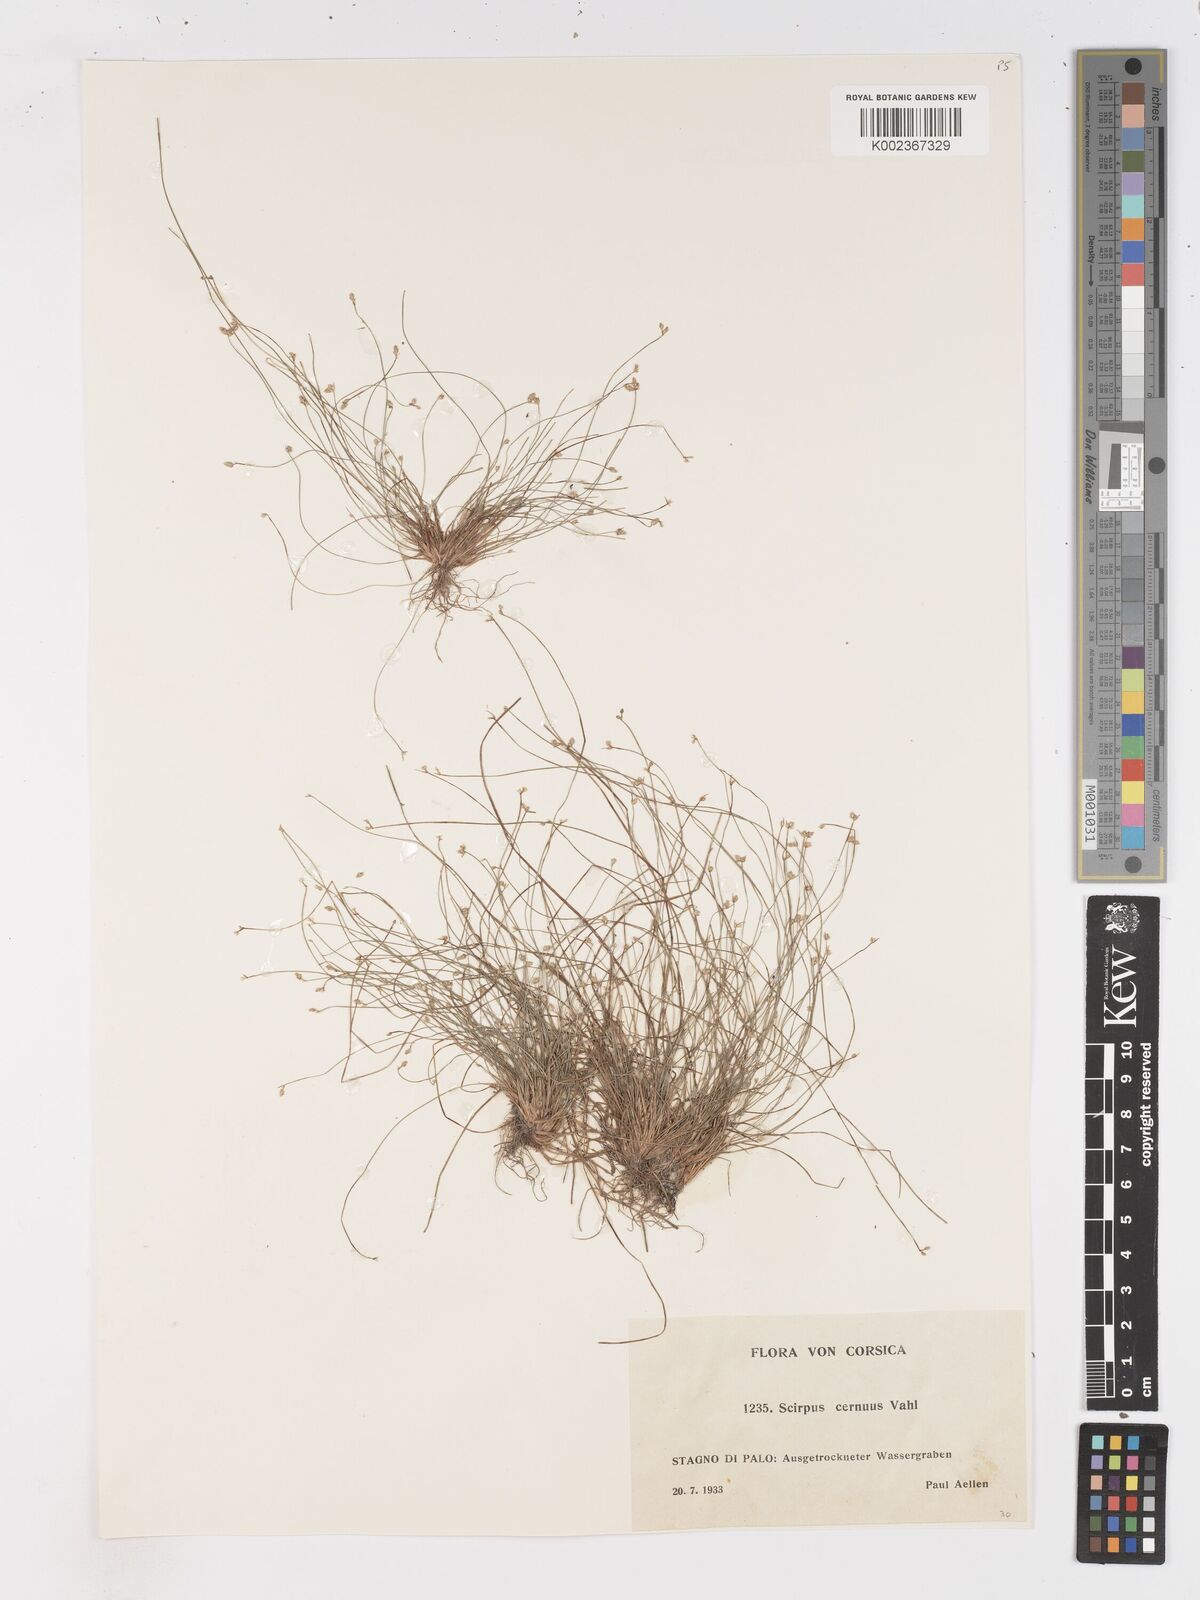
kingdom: Plantae
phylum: Tracheophyta
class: Liliopsida
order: Poales
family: Cyperaceae
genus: Isolepis
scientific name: Isolepis cernua
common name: Slender club-rush
